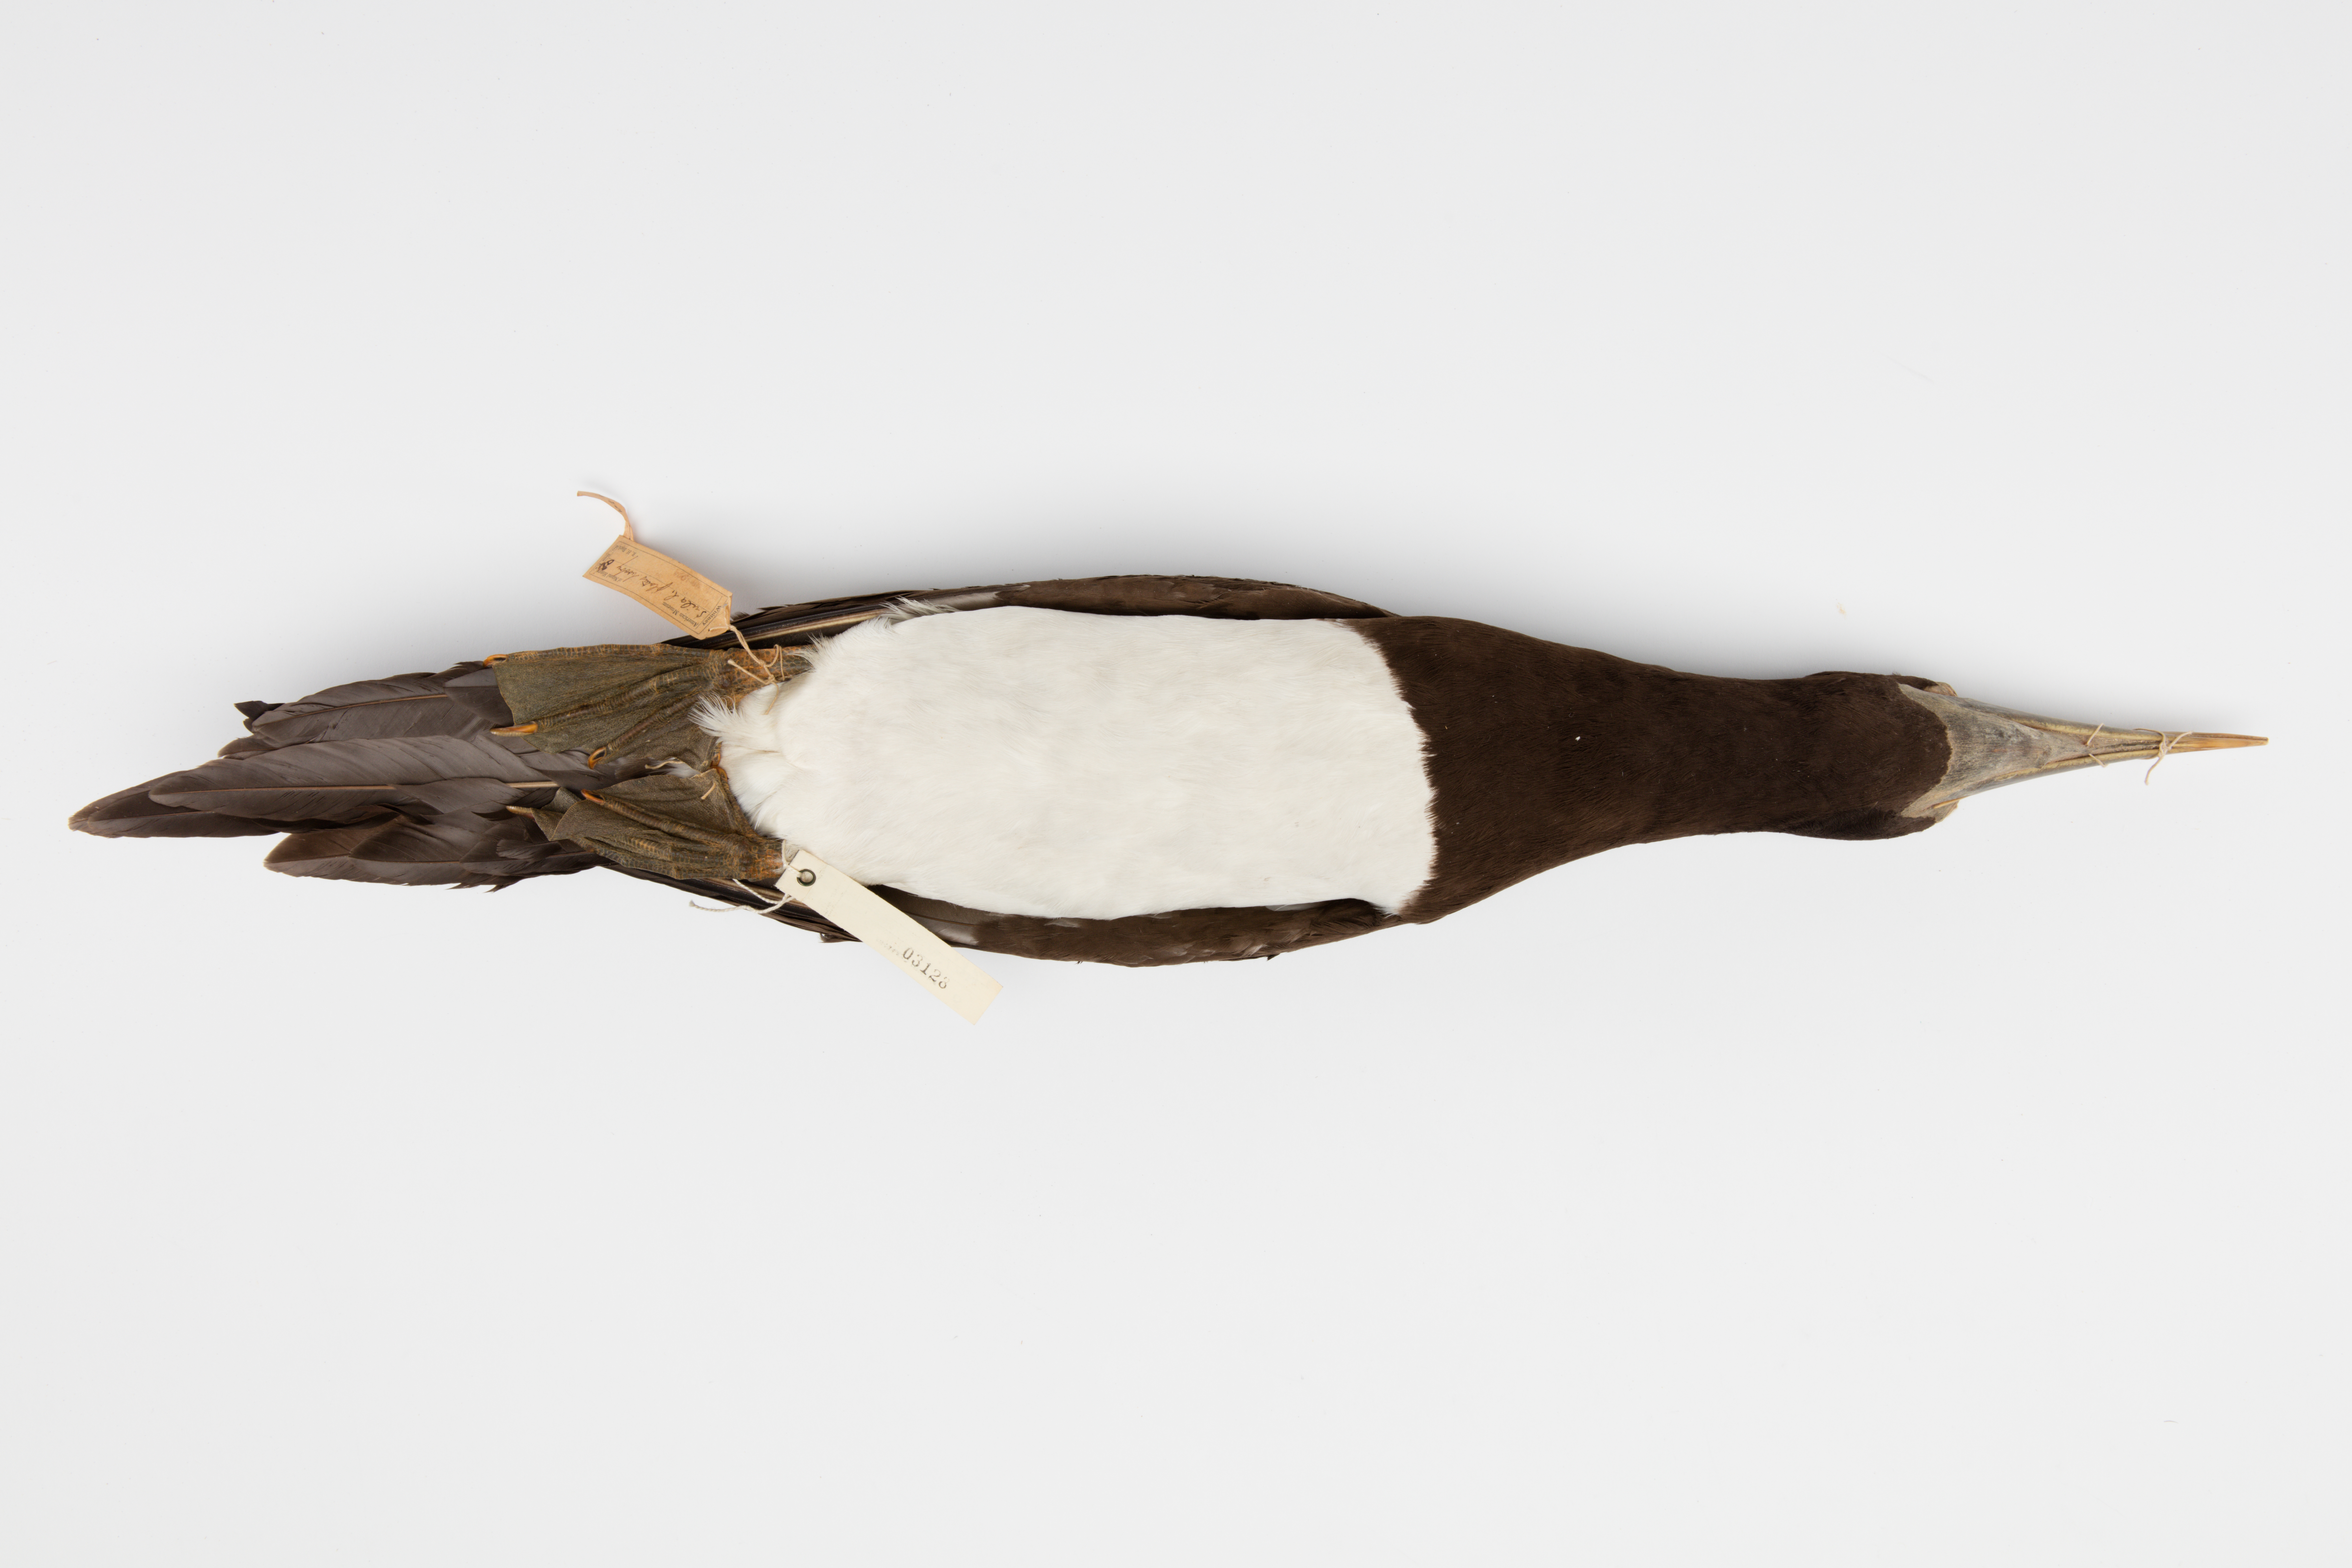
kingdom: Animalia
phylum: Chordata
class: Aves
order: Suliformes
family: Sulidae
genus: Sula
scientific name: Sula leucogaster
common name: Brown booby
